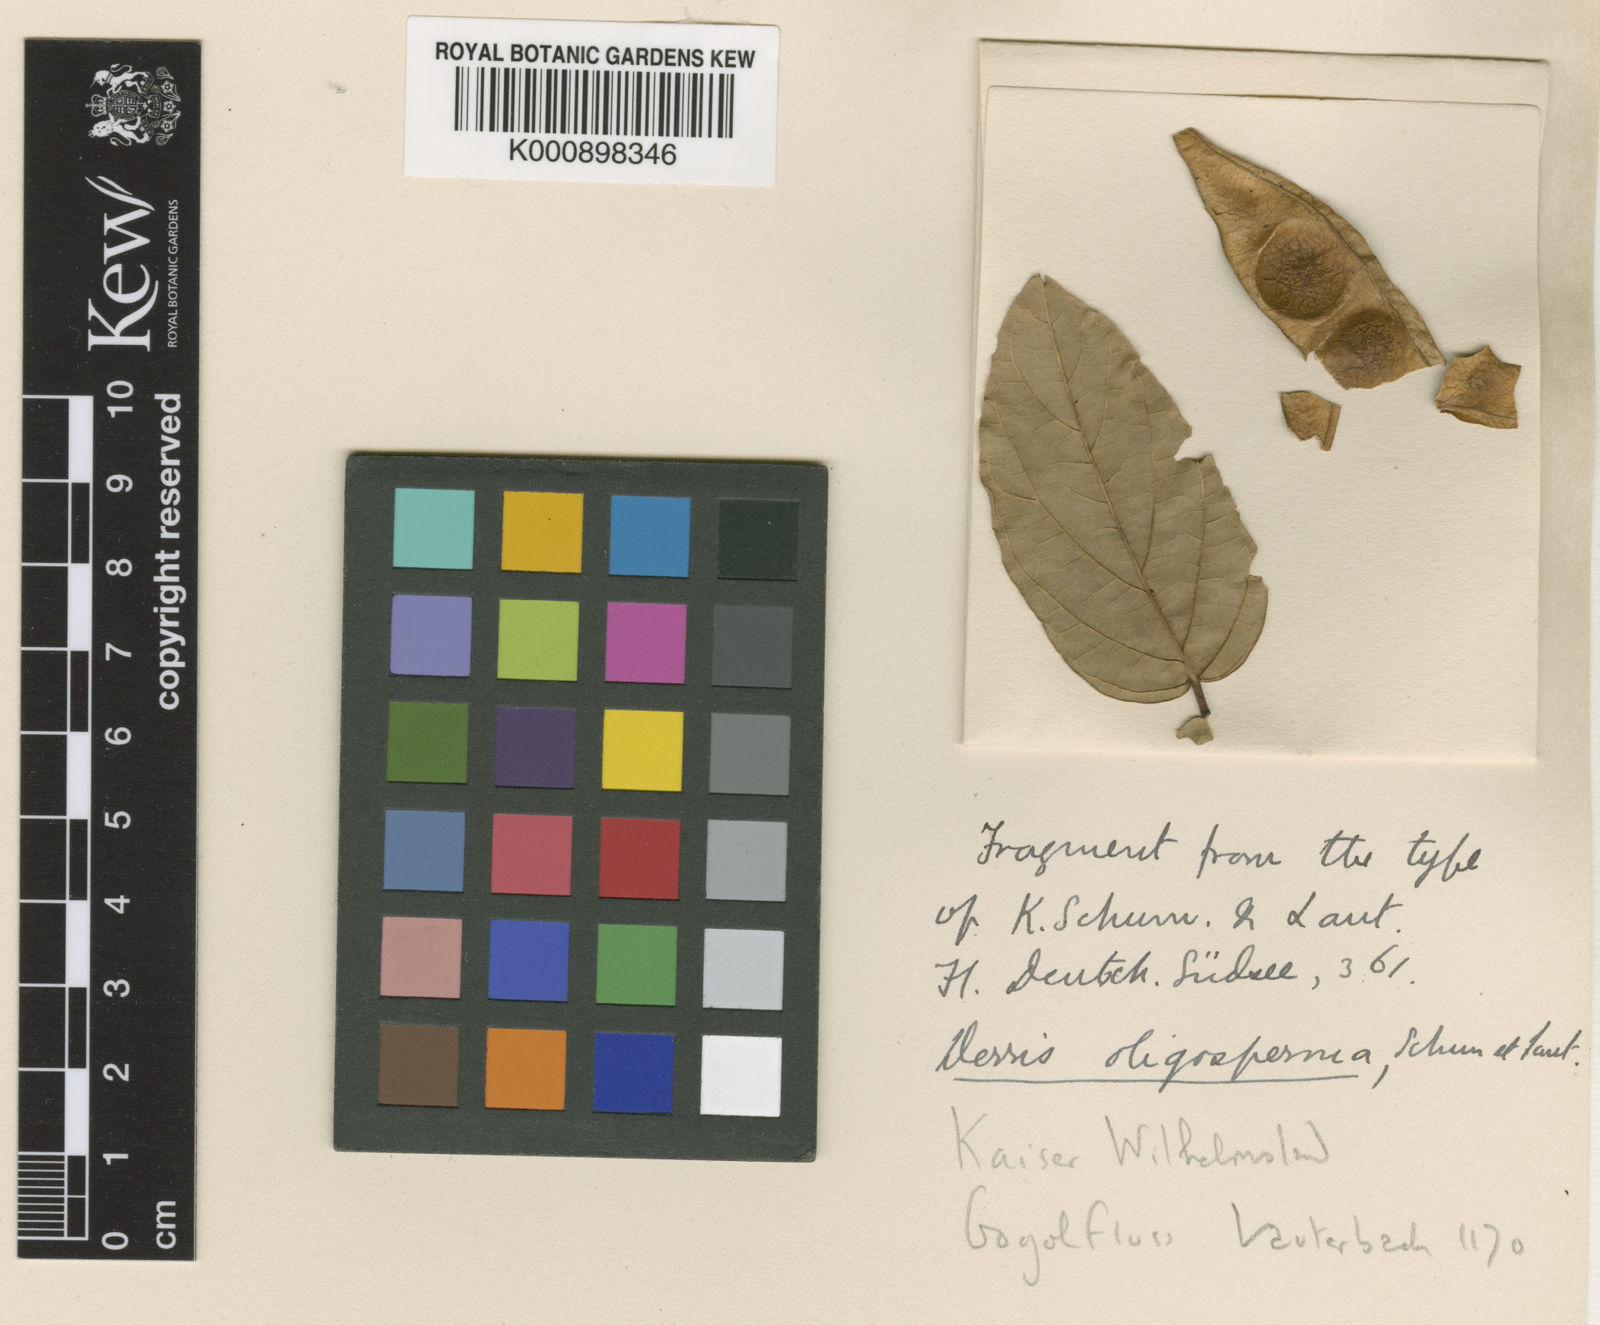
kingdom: Plantae
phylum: Tracheophyta
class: Magnoliopsida
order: Fabales
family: Fabaceae
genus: Derris
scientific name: Derris oligosperma
